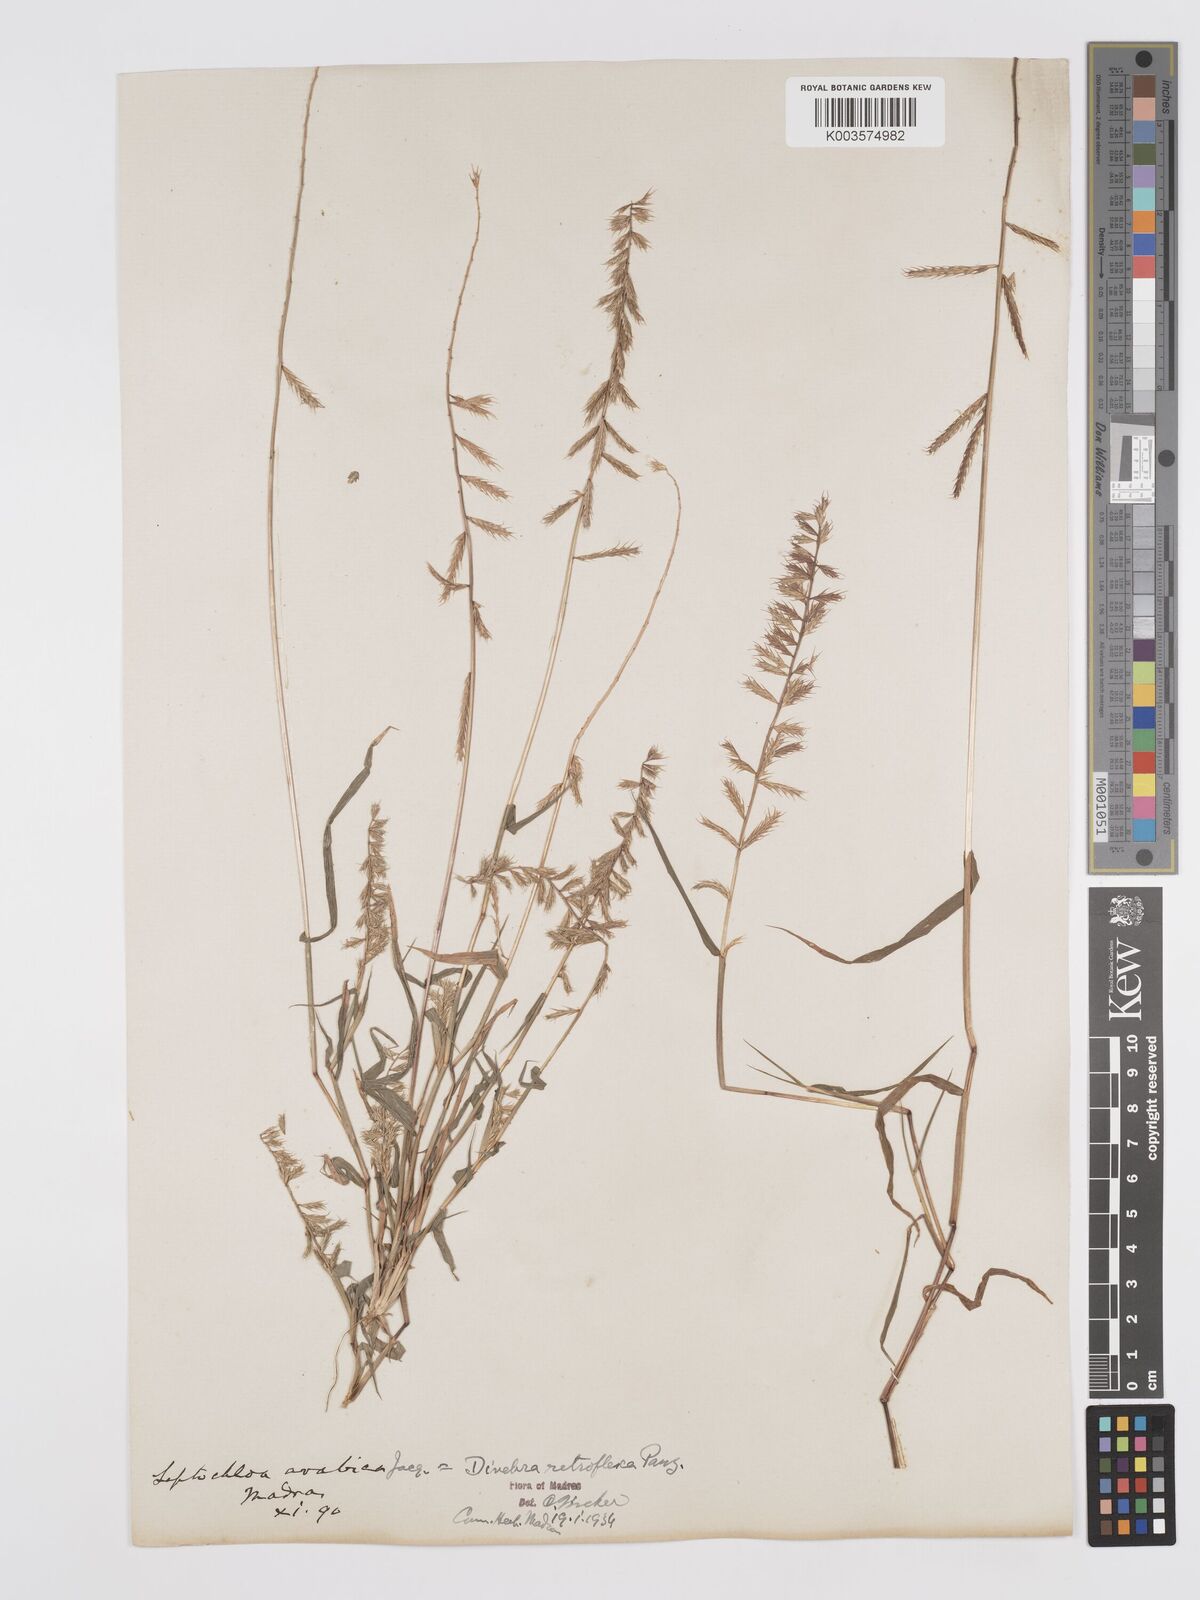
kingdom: Plantae
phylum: Tracheophyta
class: Liliopsida
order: Poales
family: Poaceae
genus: Dinebra
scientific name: Dinebra retroflexa
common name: Viper grass
